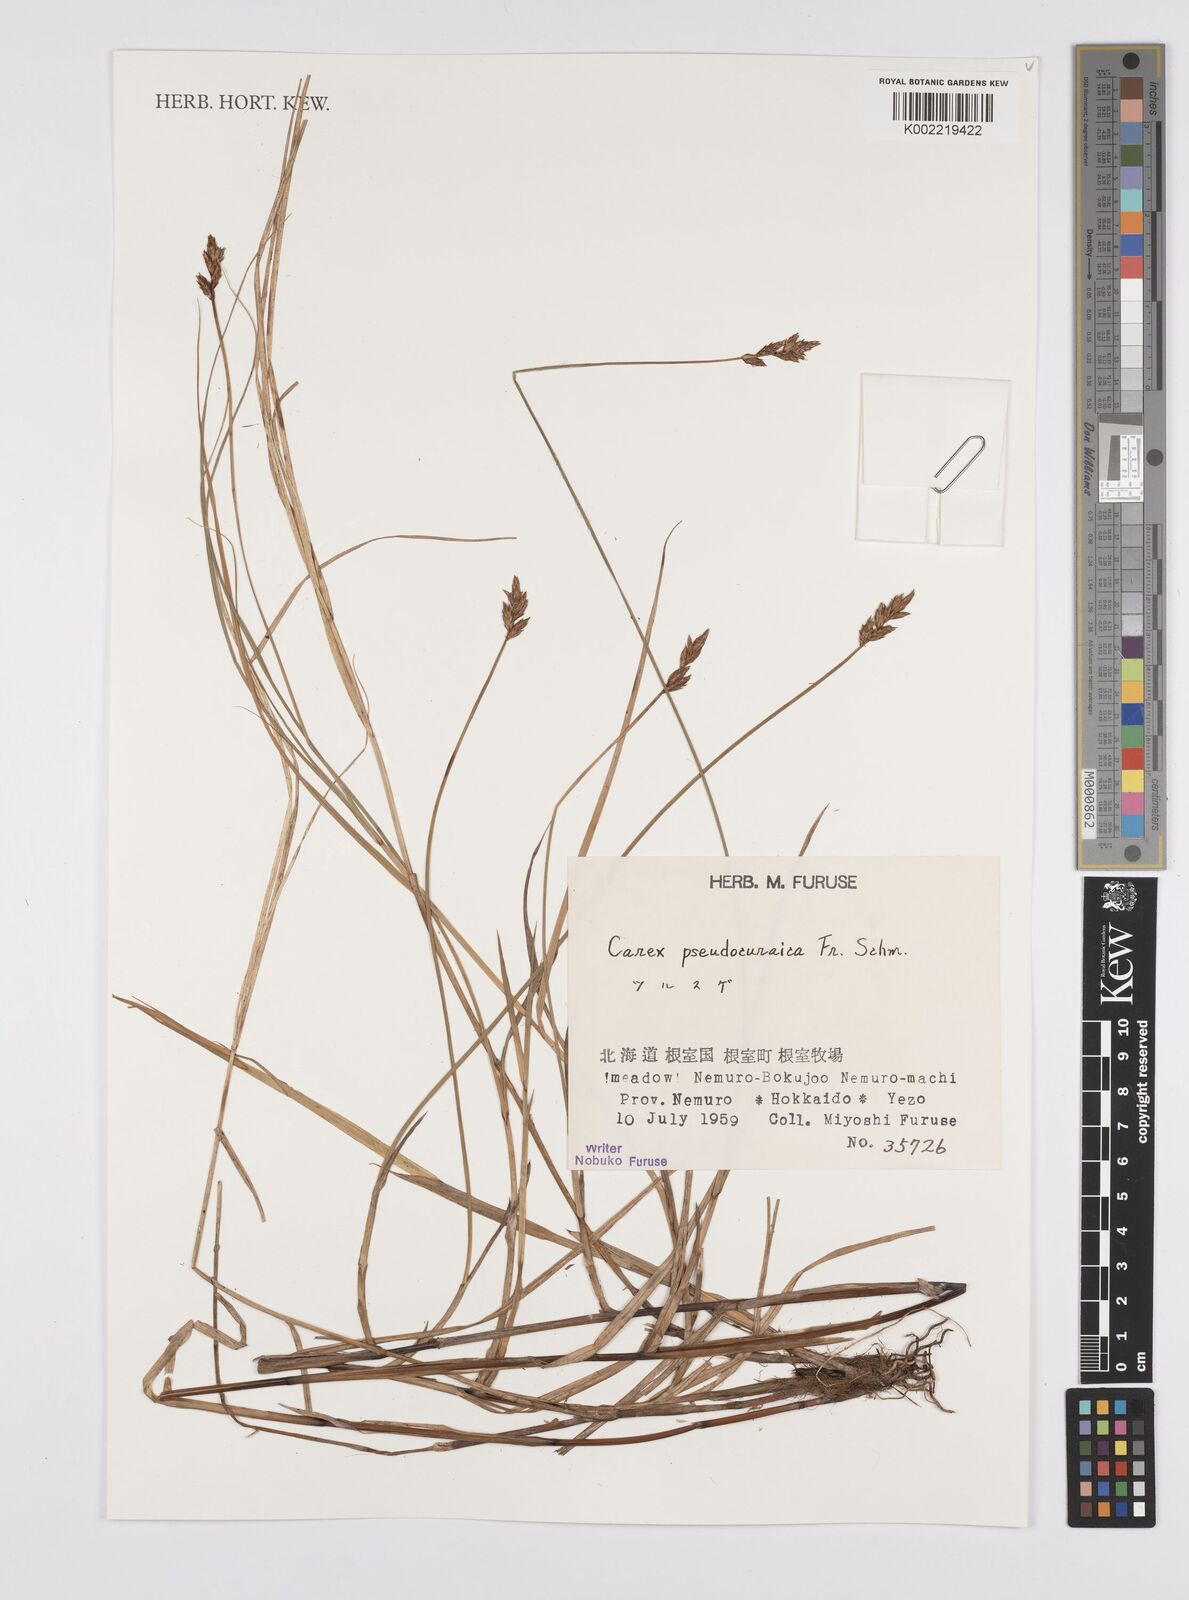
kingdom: Plantae
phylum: Tracheophyta
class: Liliopsida
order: Poales
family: Cyperaceae
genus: Carex
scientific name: Carex pseudocuraica
